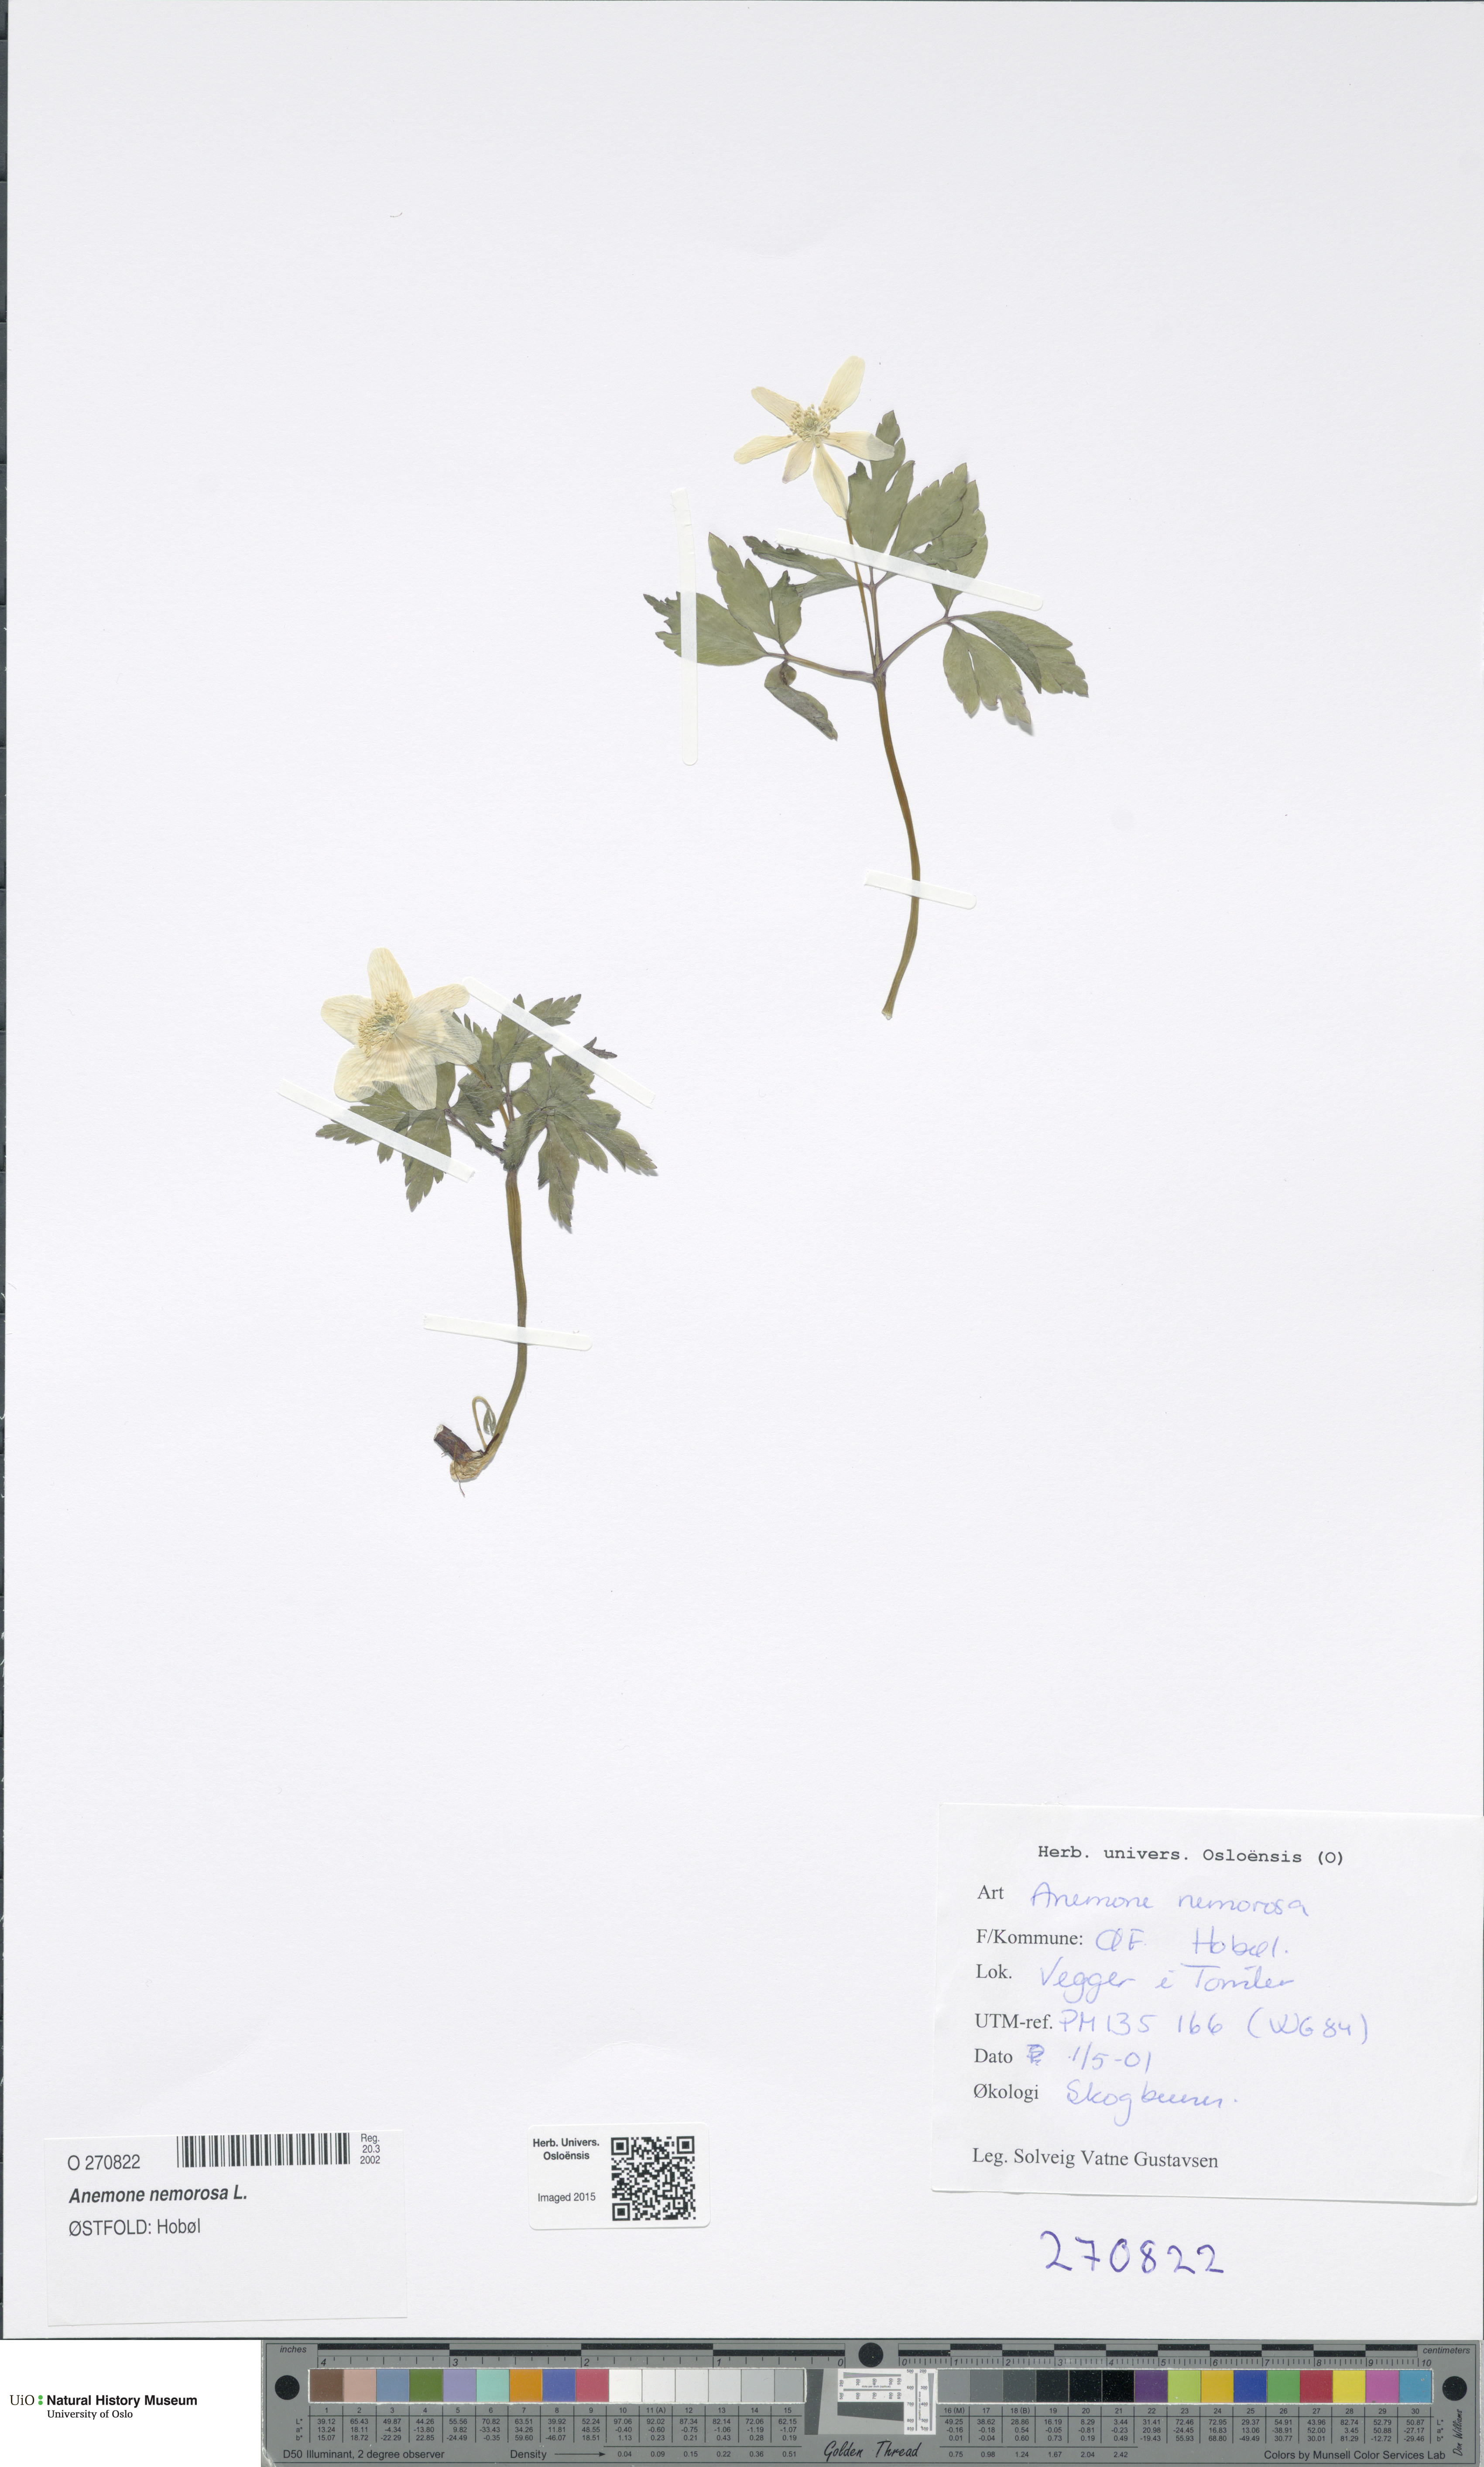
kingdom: Plantae
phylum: Tracheophyta
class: Magnoliopsida
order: Ranunculales
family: Ranunculaceae
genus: Anemone
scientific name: Anemone nemorosa
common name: Wood anemone
